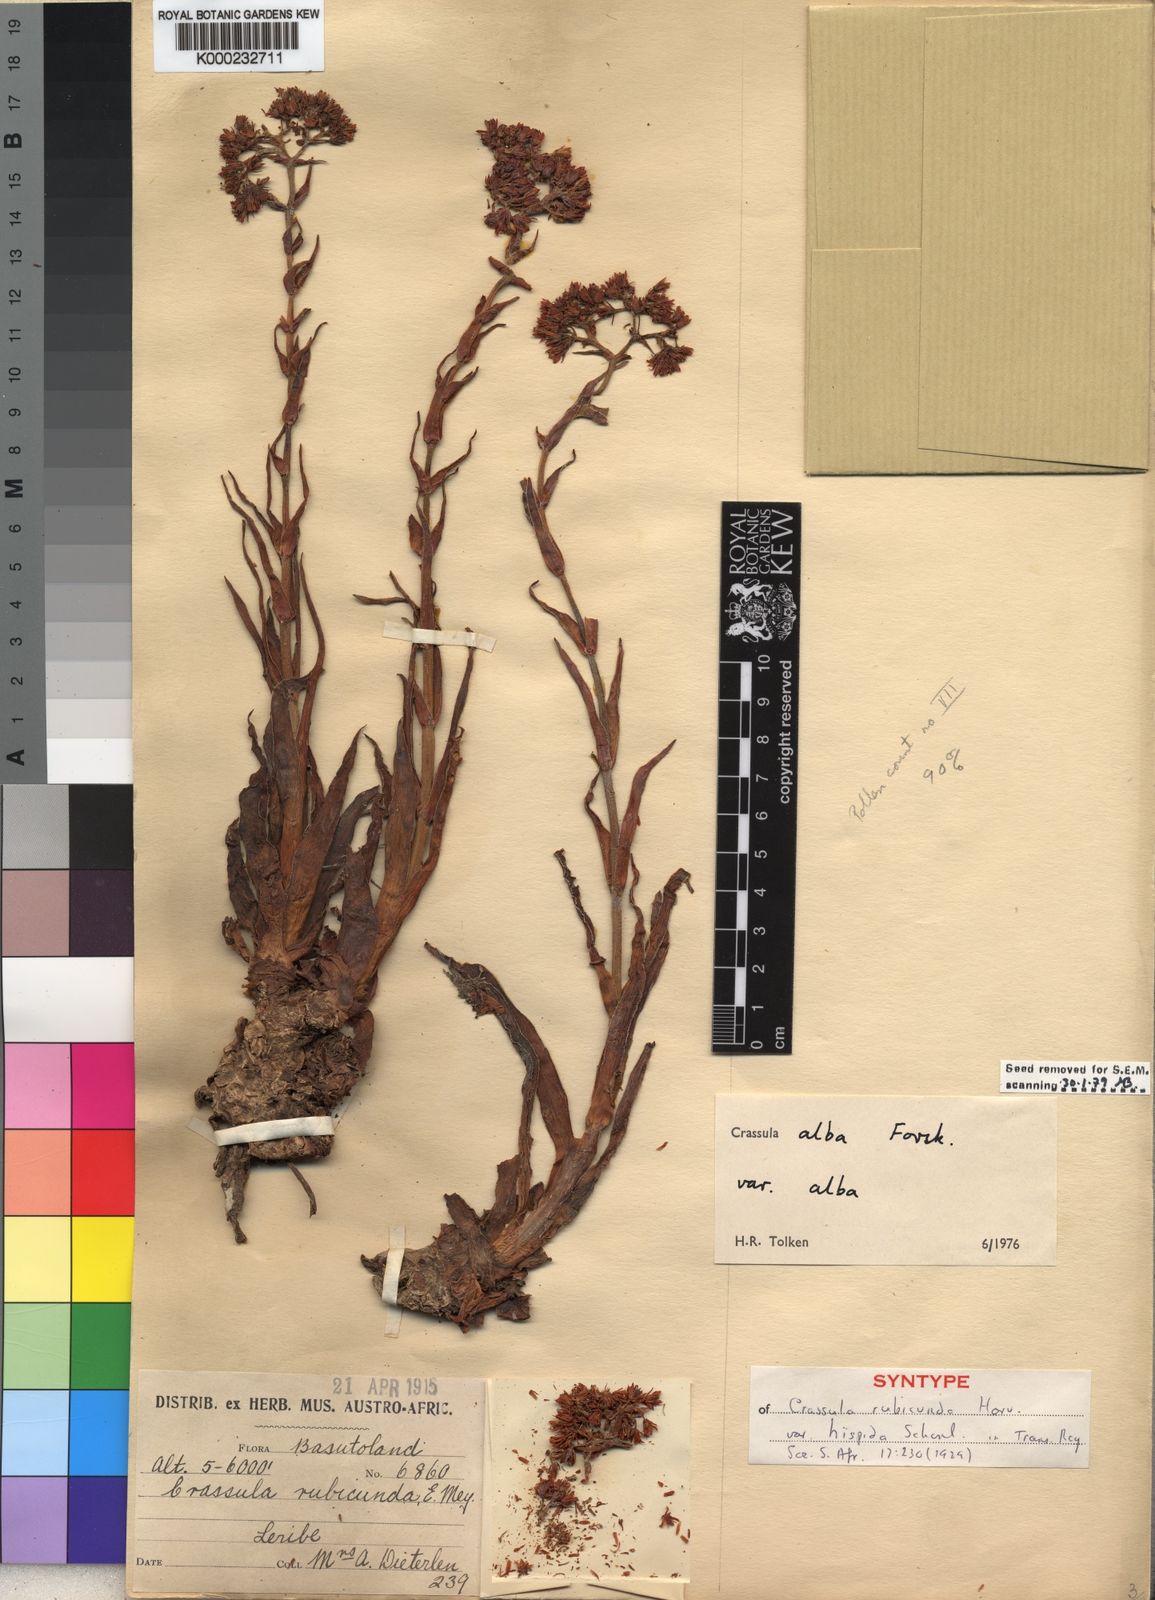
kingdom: Plantae
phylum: Tracheophyta
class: Magnoliopsida
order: Saxifragales
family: Crassulaceae
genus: Crassula
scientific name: Crassula alba
